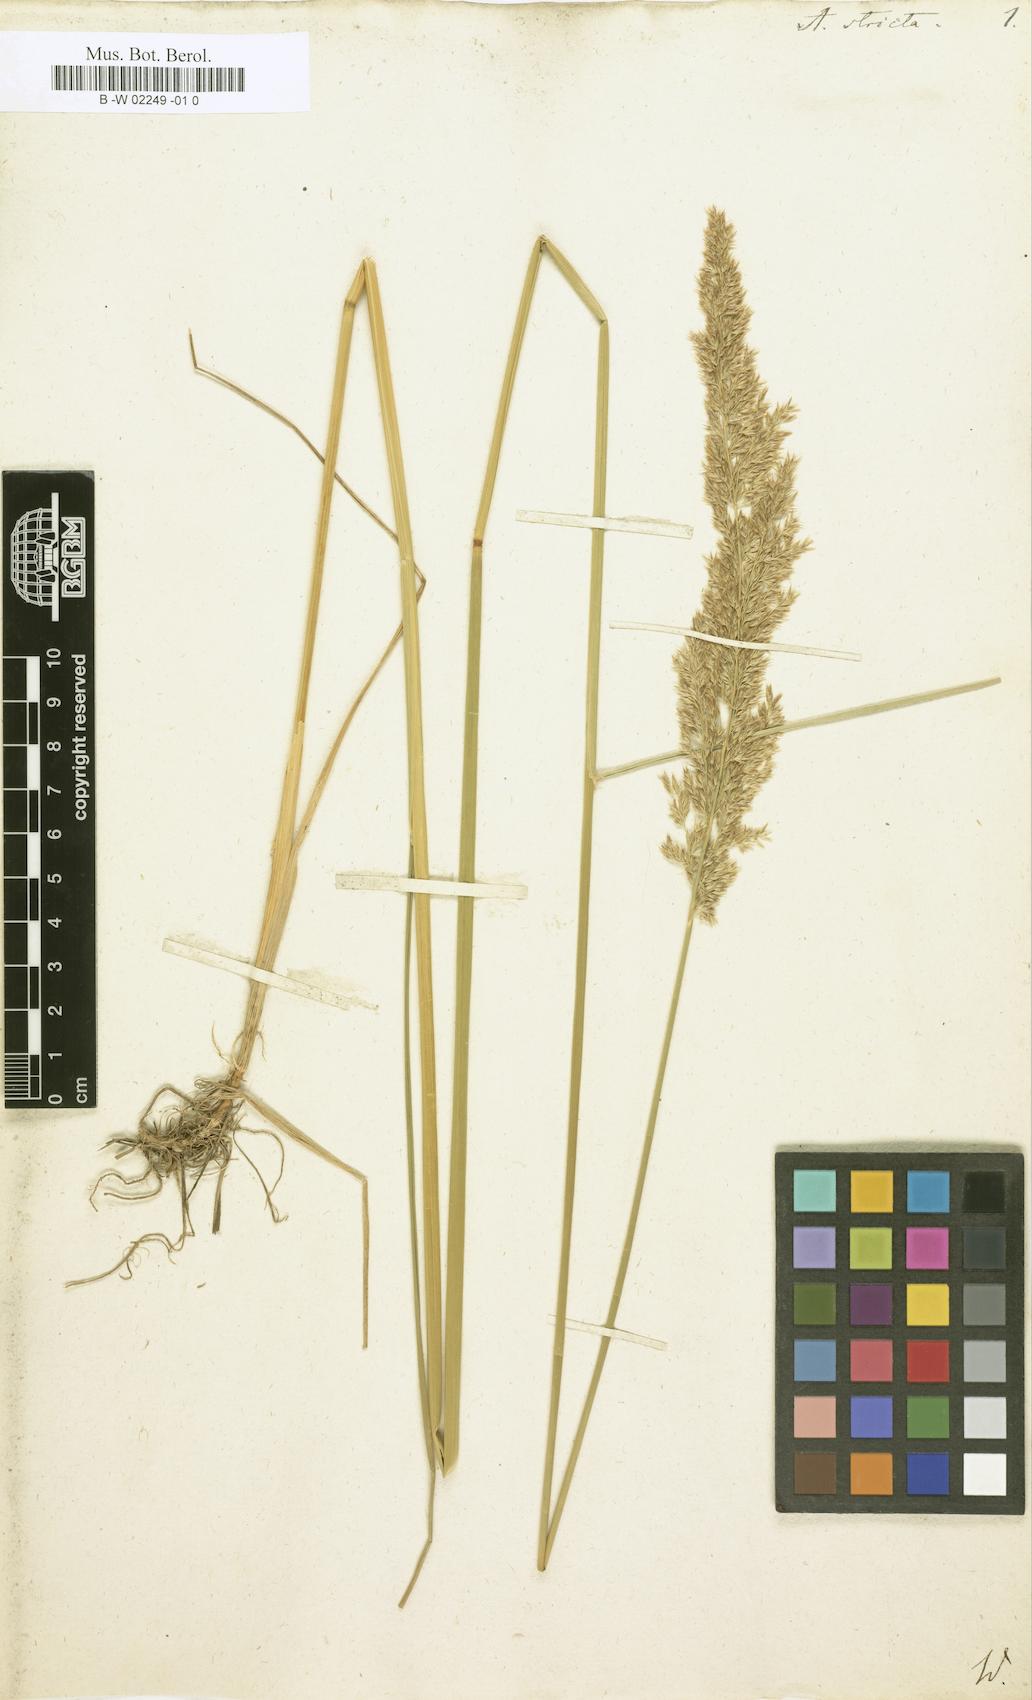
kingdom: Plantae
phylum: Tracheophyta
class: Liliopsida
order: Poales
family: Poaceae
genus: Arundo
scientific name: Arundo stricta
